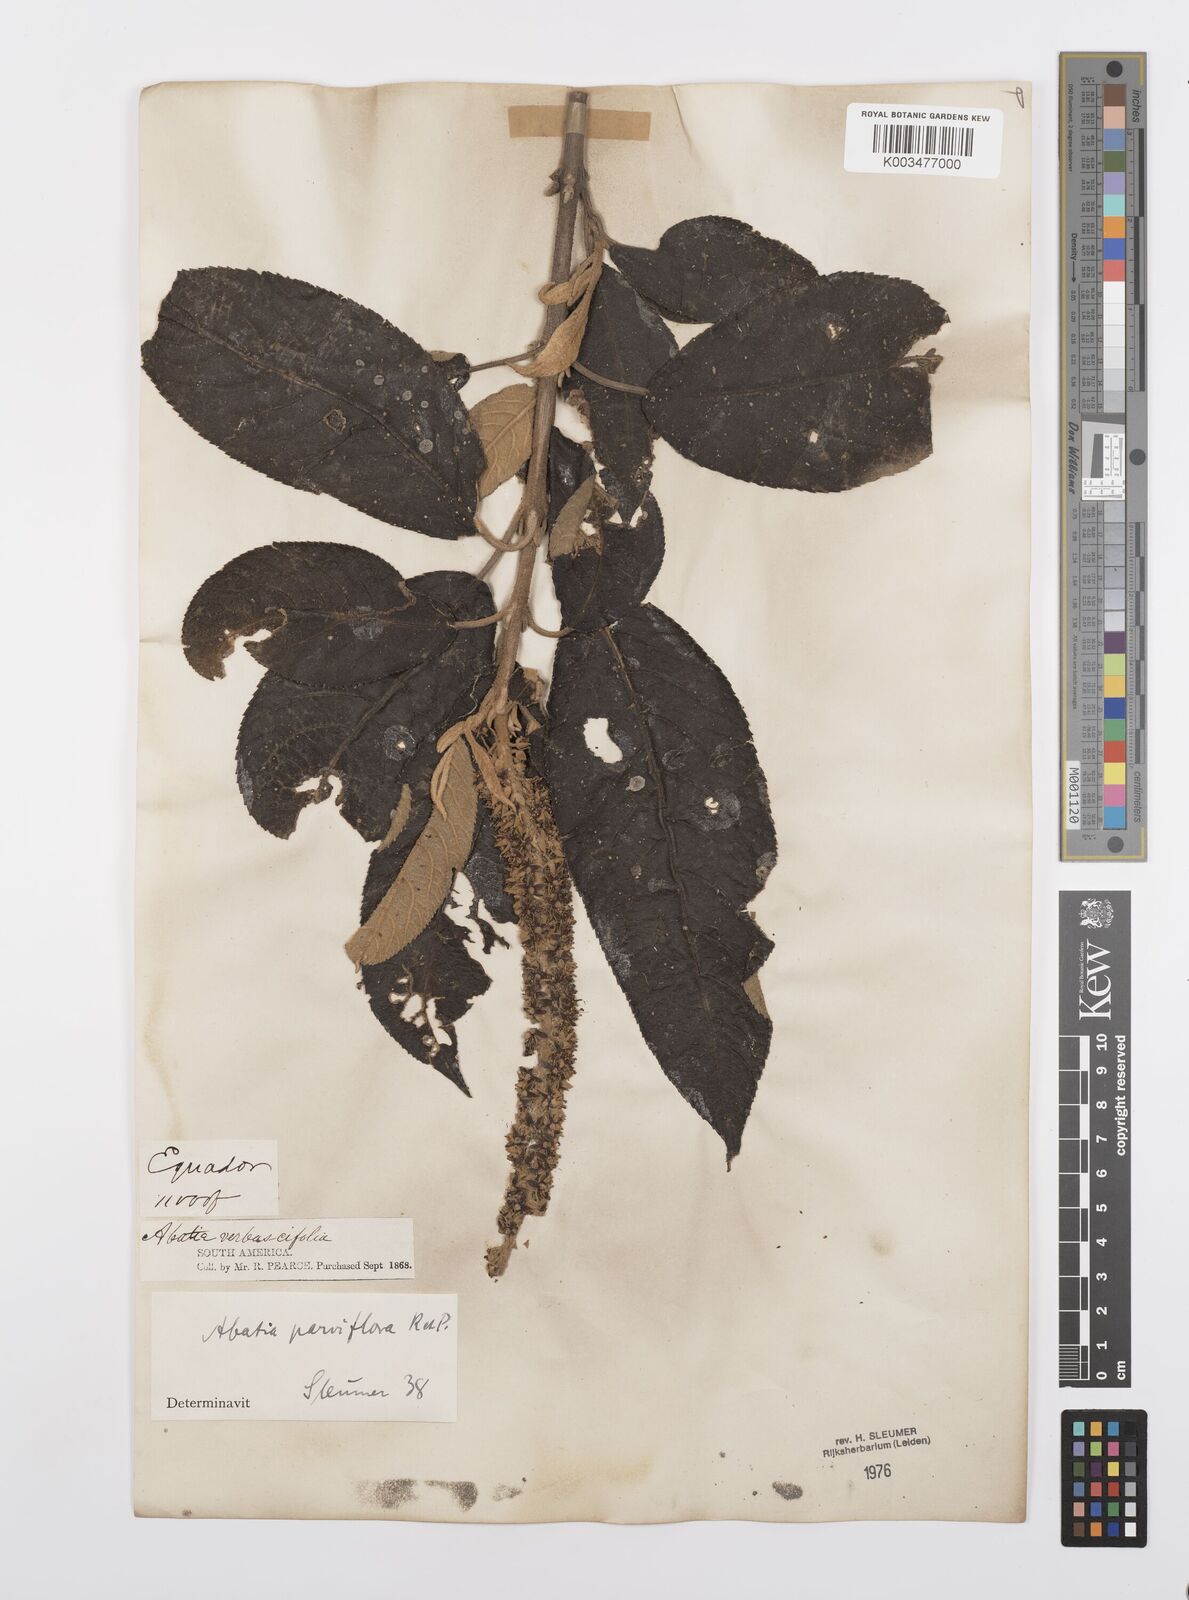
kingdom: Plantae
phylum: Tracheophyta
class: Magnoliopsida
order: Malpighiales
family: Salicaceae
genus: Abatia
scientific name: Abatia parviflora
